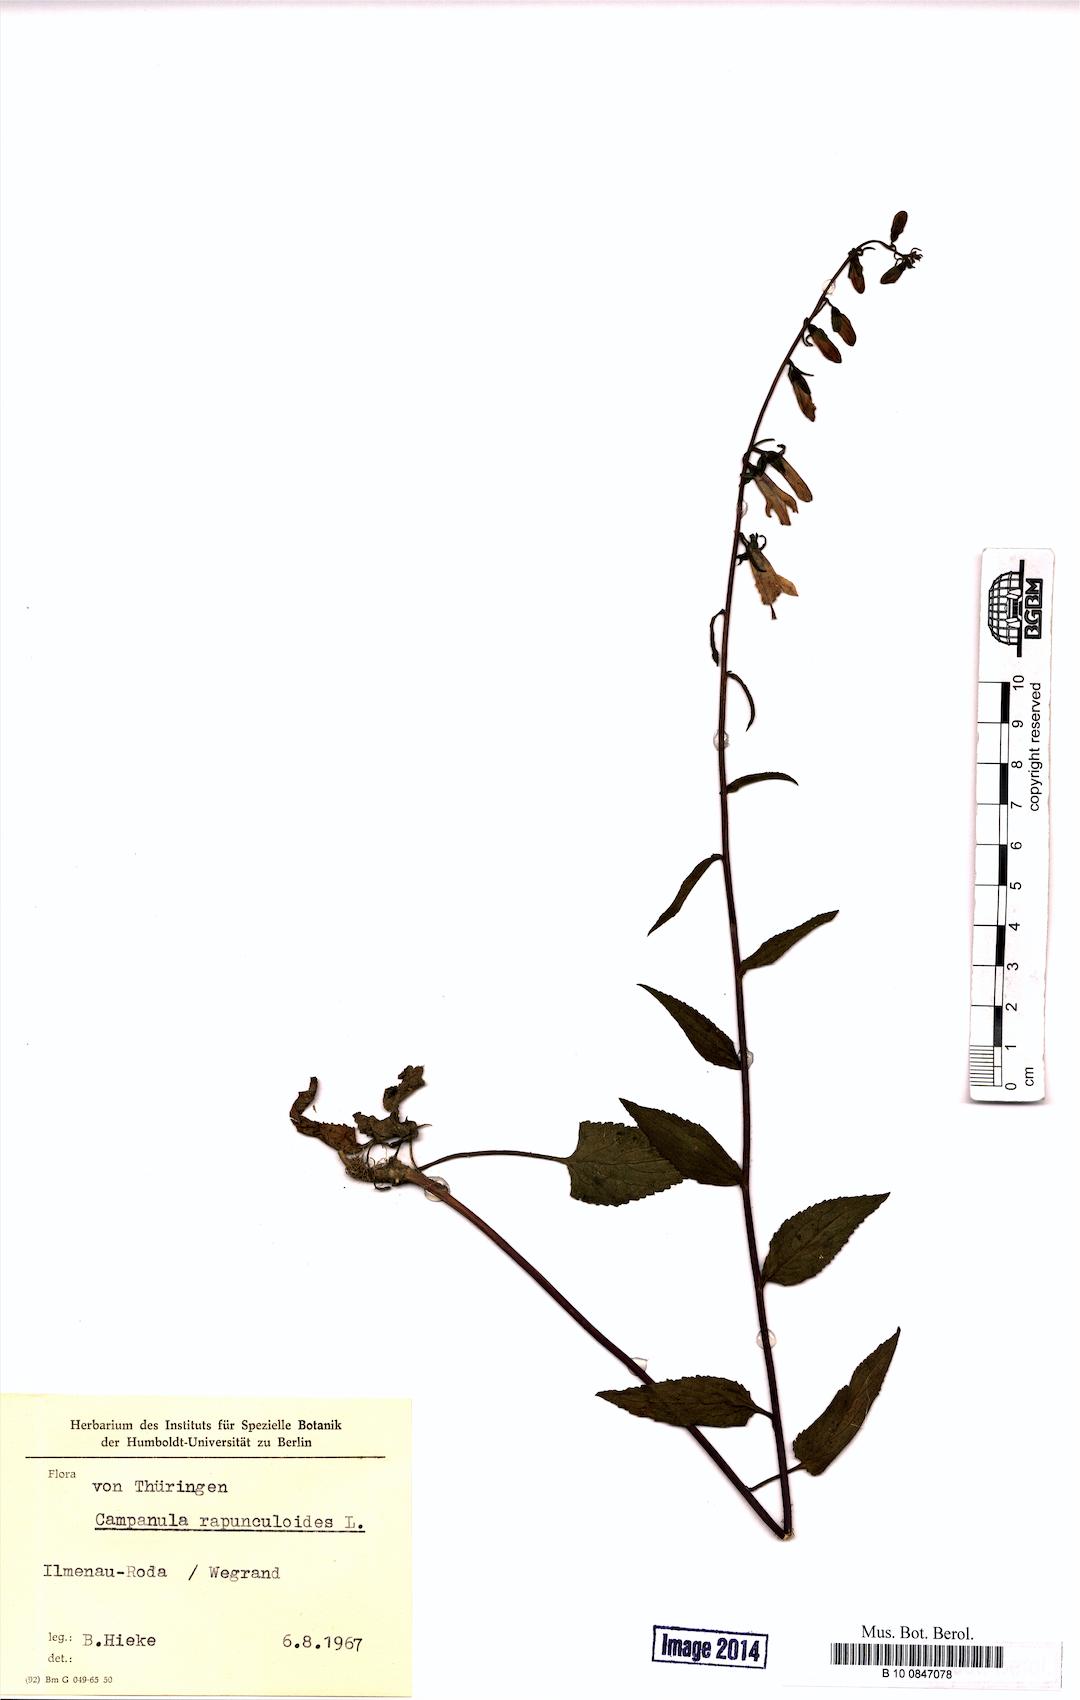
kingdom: Plantae
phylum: Tracheophyta
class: Magnoliopsida
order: Asterales
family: Campanulaceae
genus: Campanula
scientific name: Campanula rapunculoides
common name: Creeping bellflower
